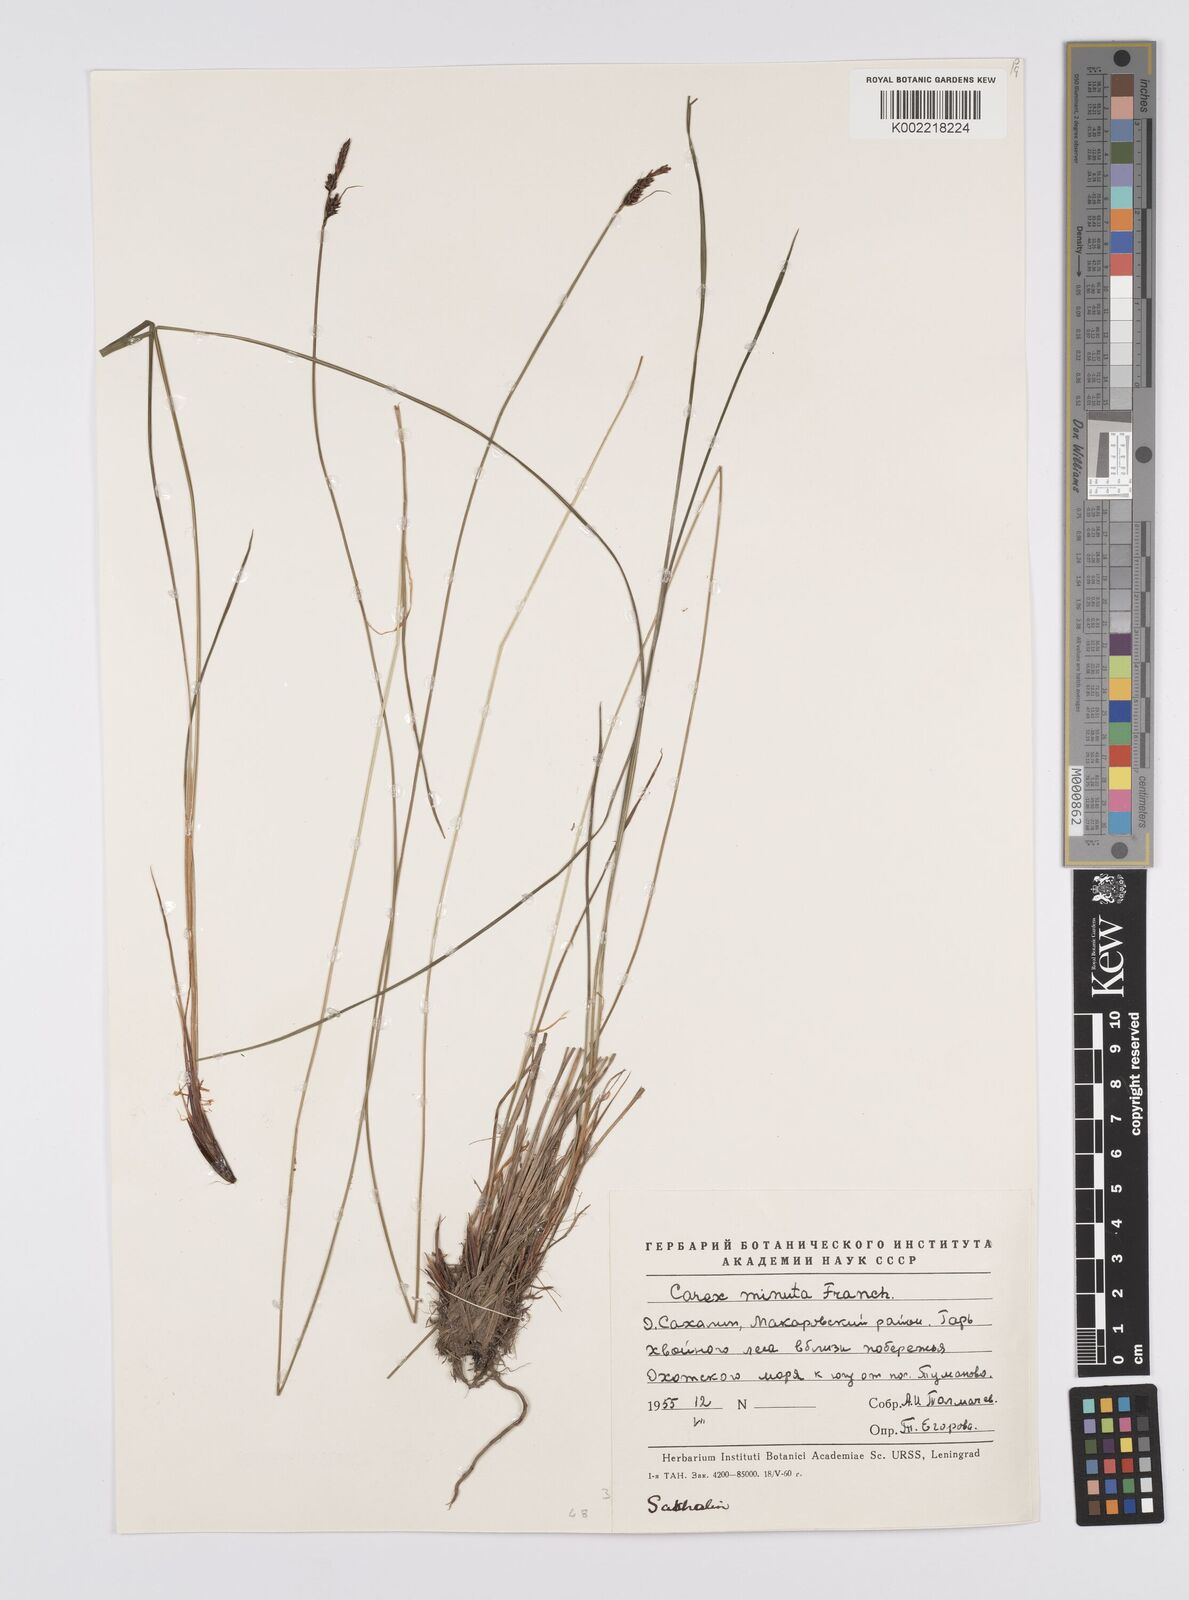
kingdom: Plantae
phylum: Tracheophyta
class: Liliopsida
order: Poales
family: Cyperaceae
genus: Carex
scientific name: Carex
